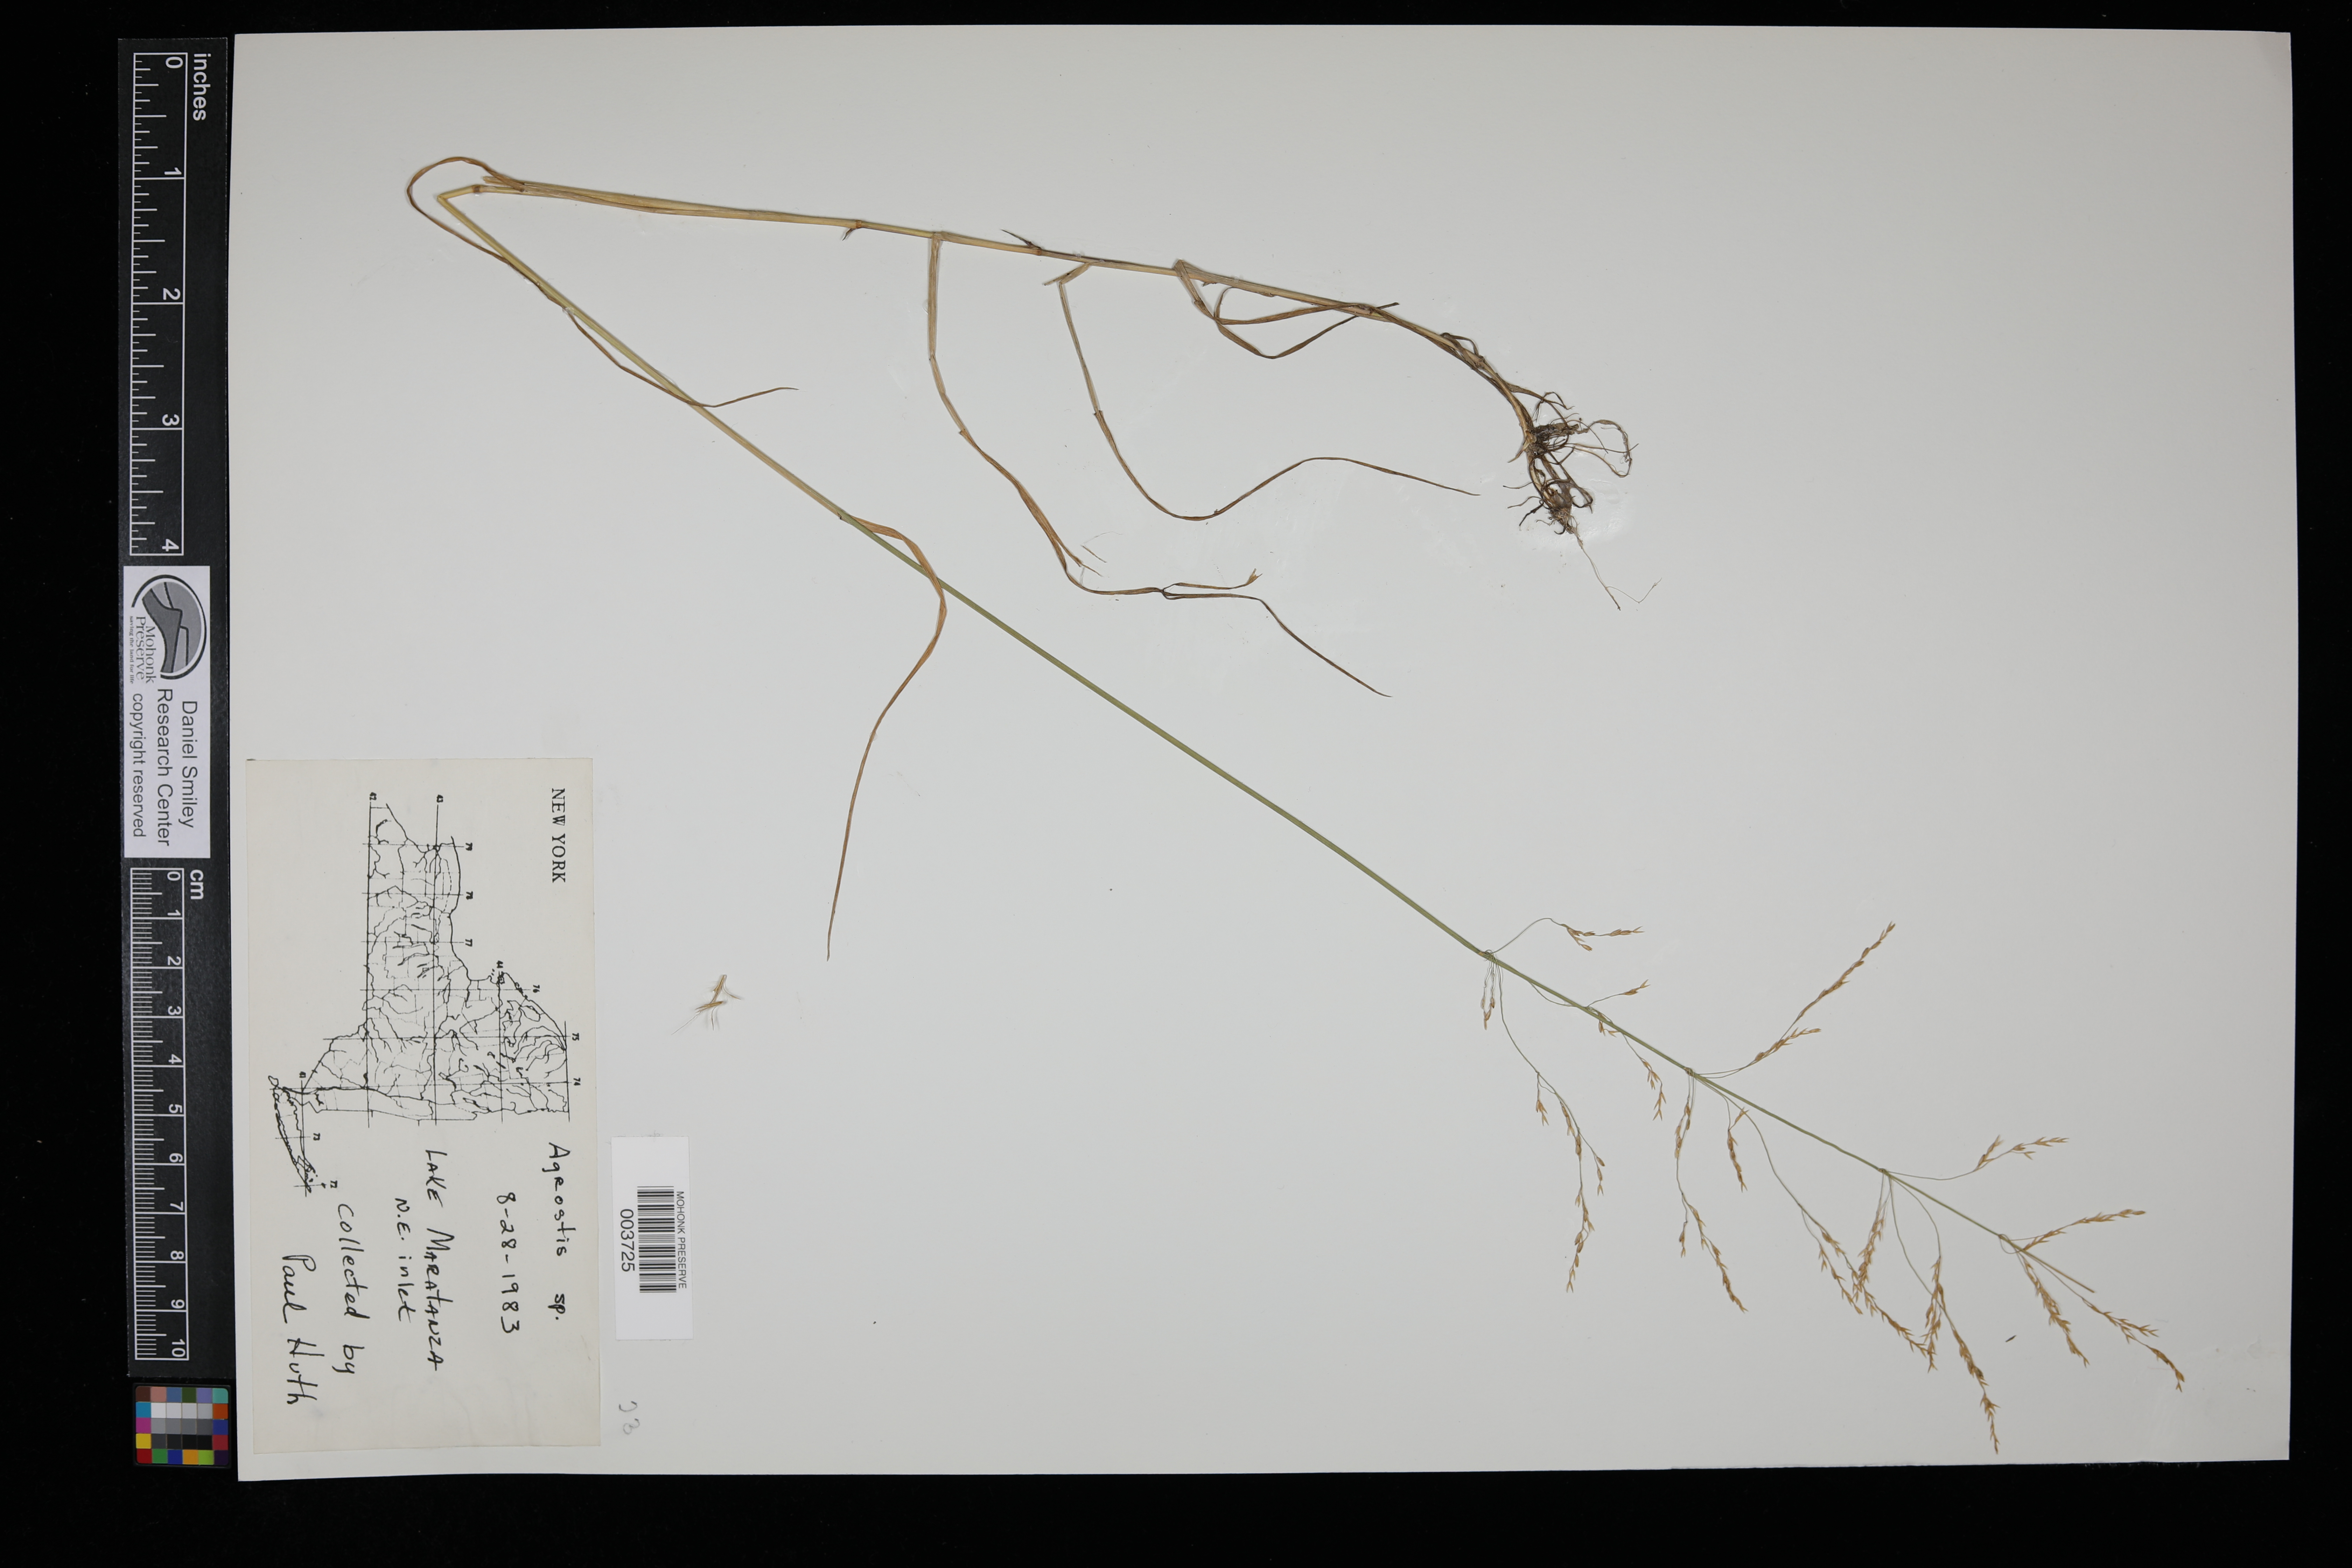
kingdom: Plantae
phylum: Tracheophyta
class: Liliopsida
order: Poales
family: Poaceae
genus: Agrostis
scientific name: Agrostis
